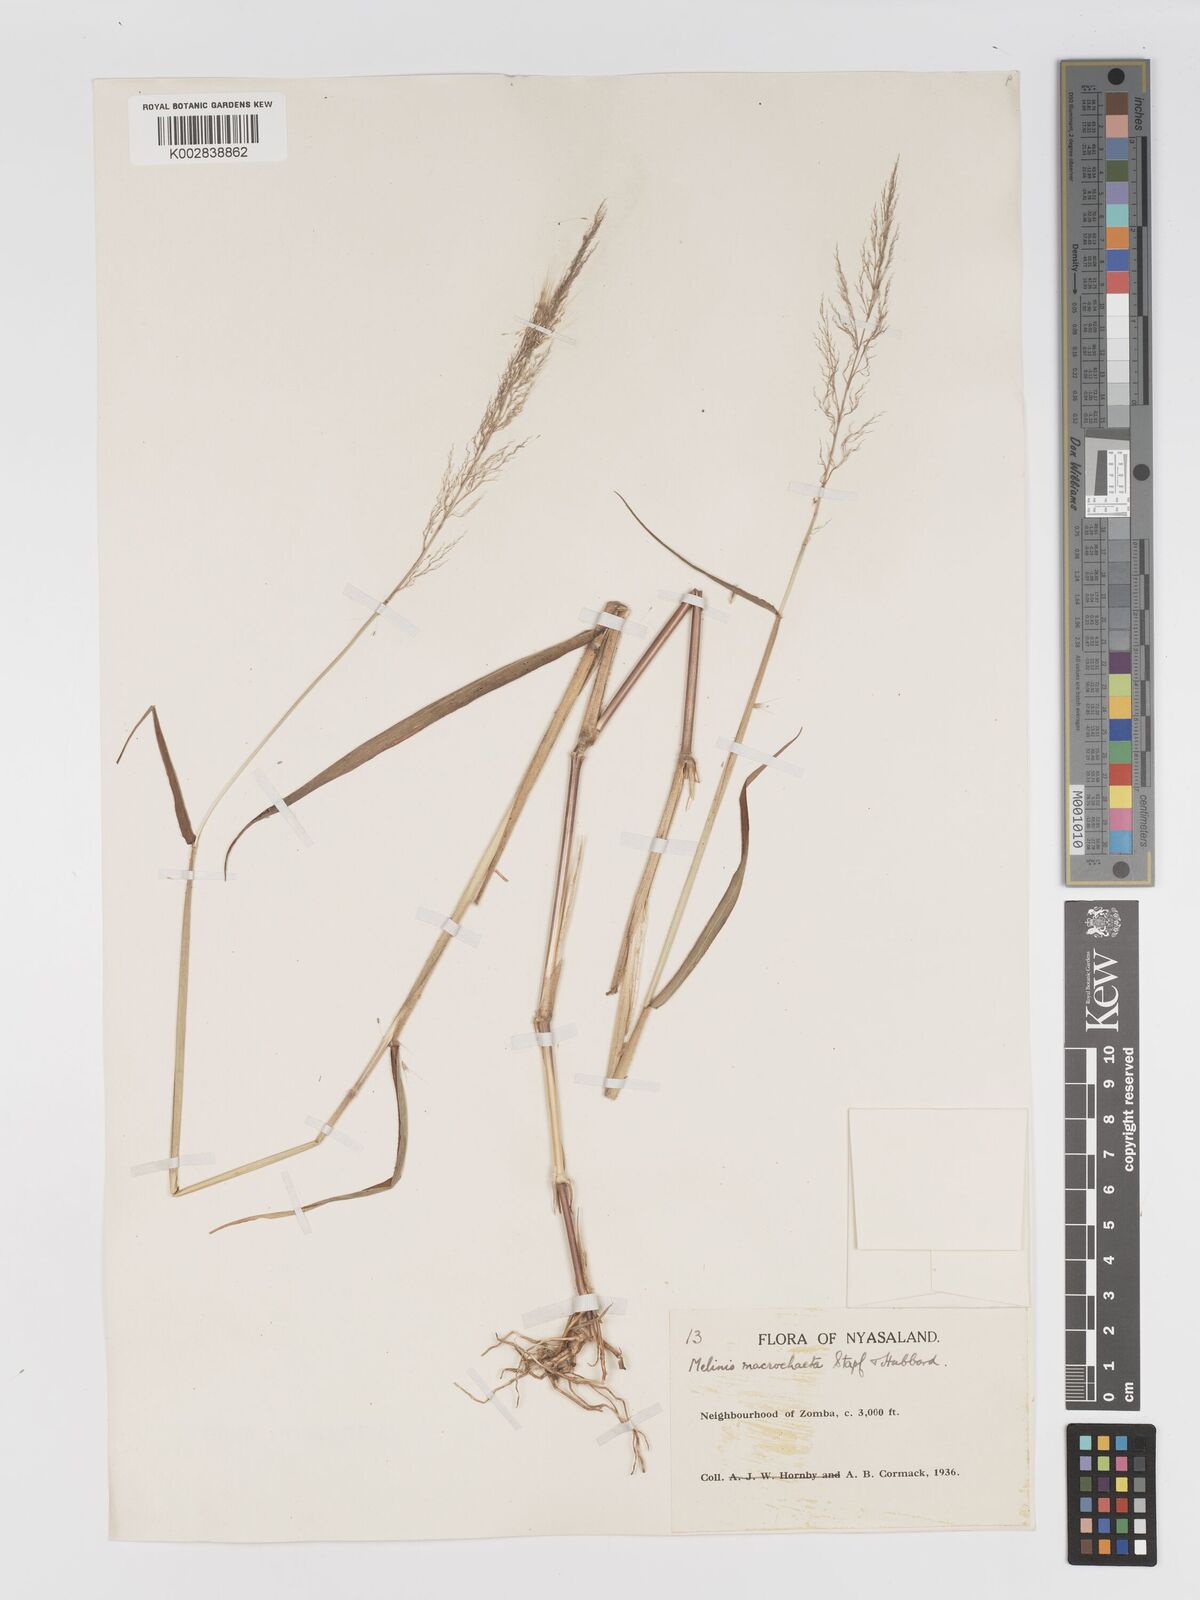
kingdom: Plantae
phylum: Tracheophyta
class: Liliopsida
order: Poales
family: Poaceae
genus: Melinis
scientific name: Melinis macrochaeta
